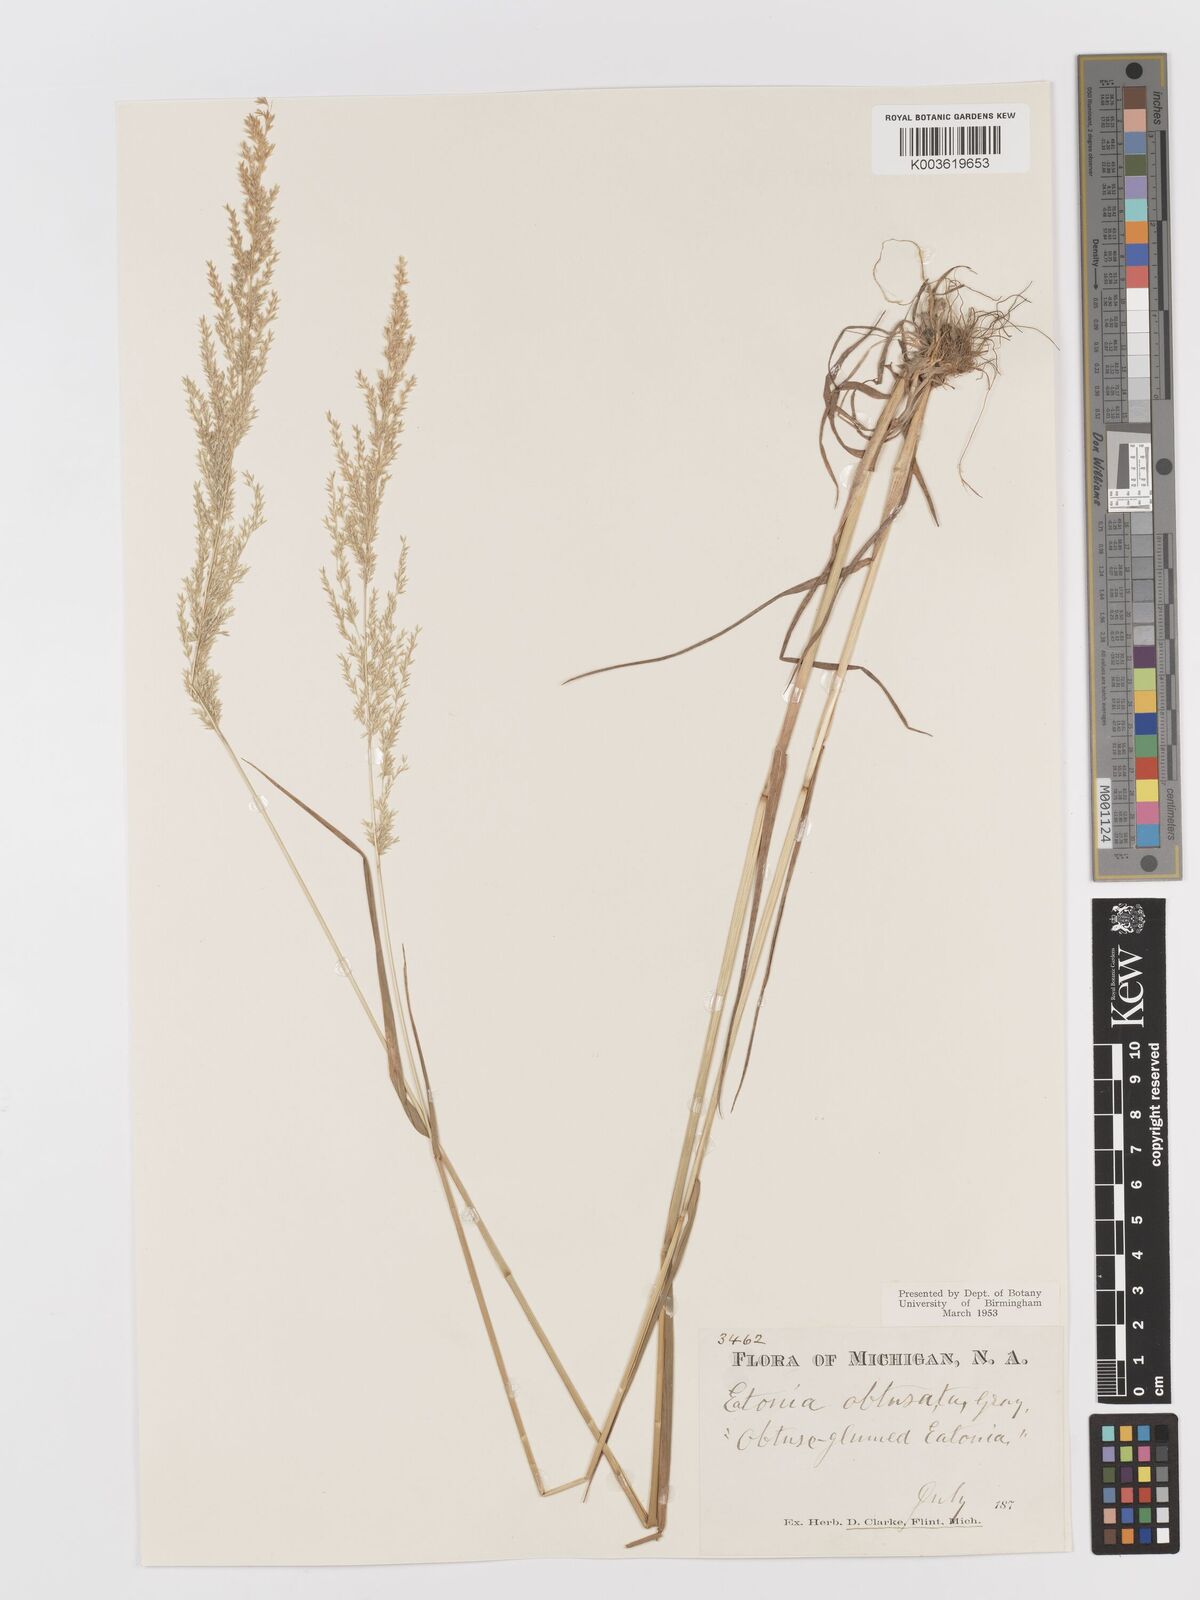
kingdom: Plantae
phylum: Tracheophyta
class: Liliopsida
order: Poales
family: Poaceae
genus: Sphenopholis
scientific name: Sphenopholis obtusata
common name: Prairie grass
